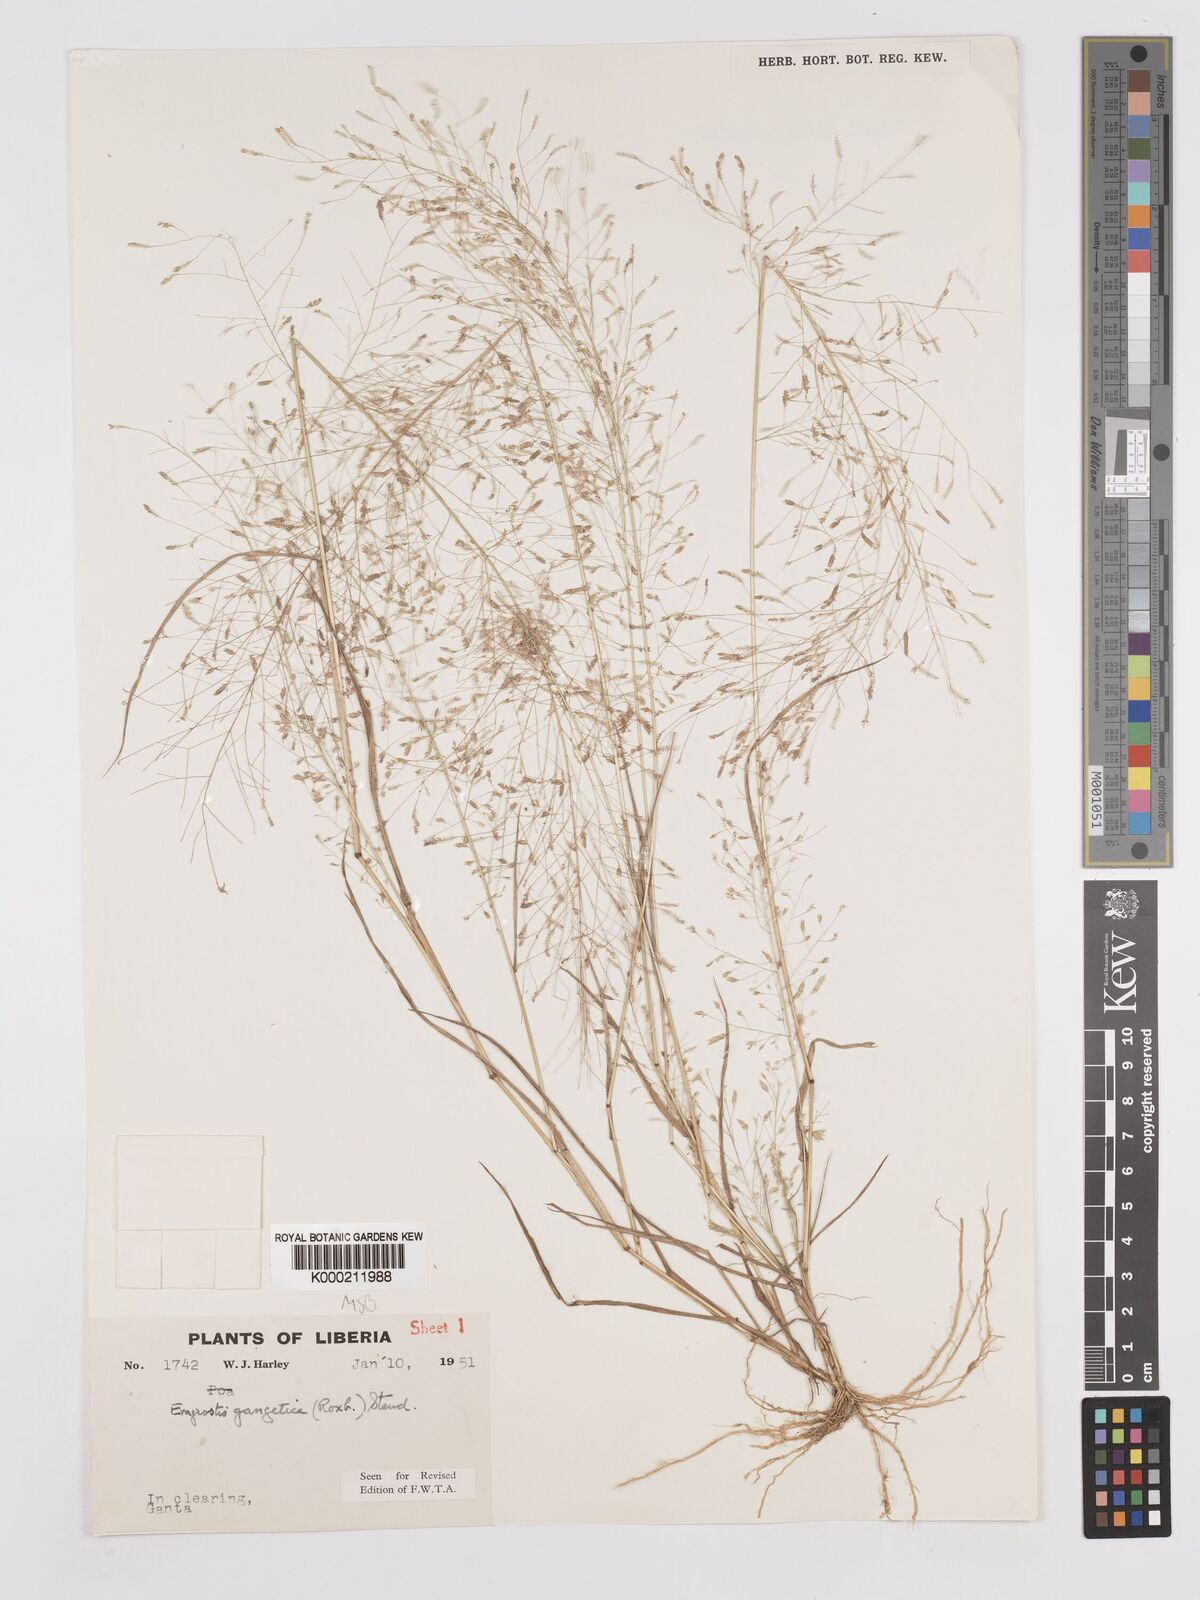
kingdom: Plantae
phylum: Tracheophyta
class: Liliopsida
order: Poales
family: Poaceae
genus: Eragrostis
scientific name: Eragrostis gangetica
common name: Slimflower lovegrass
